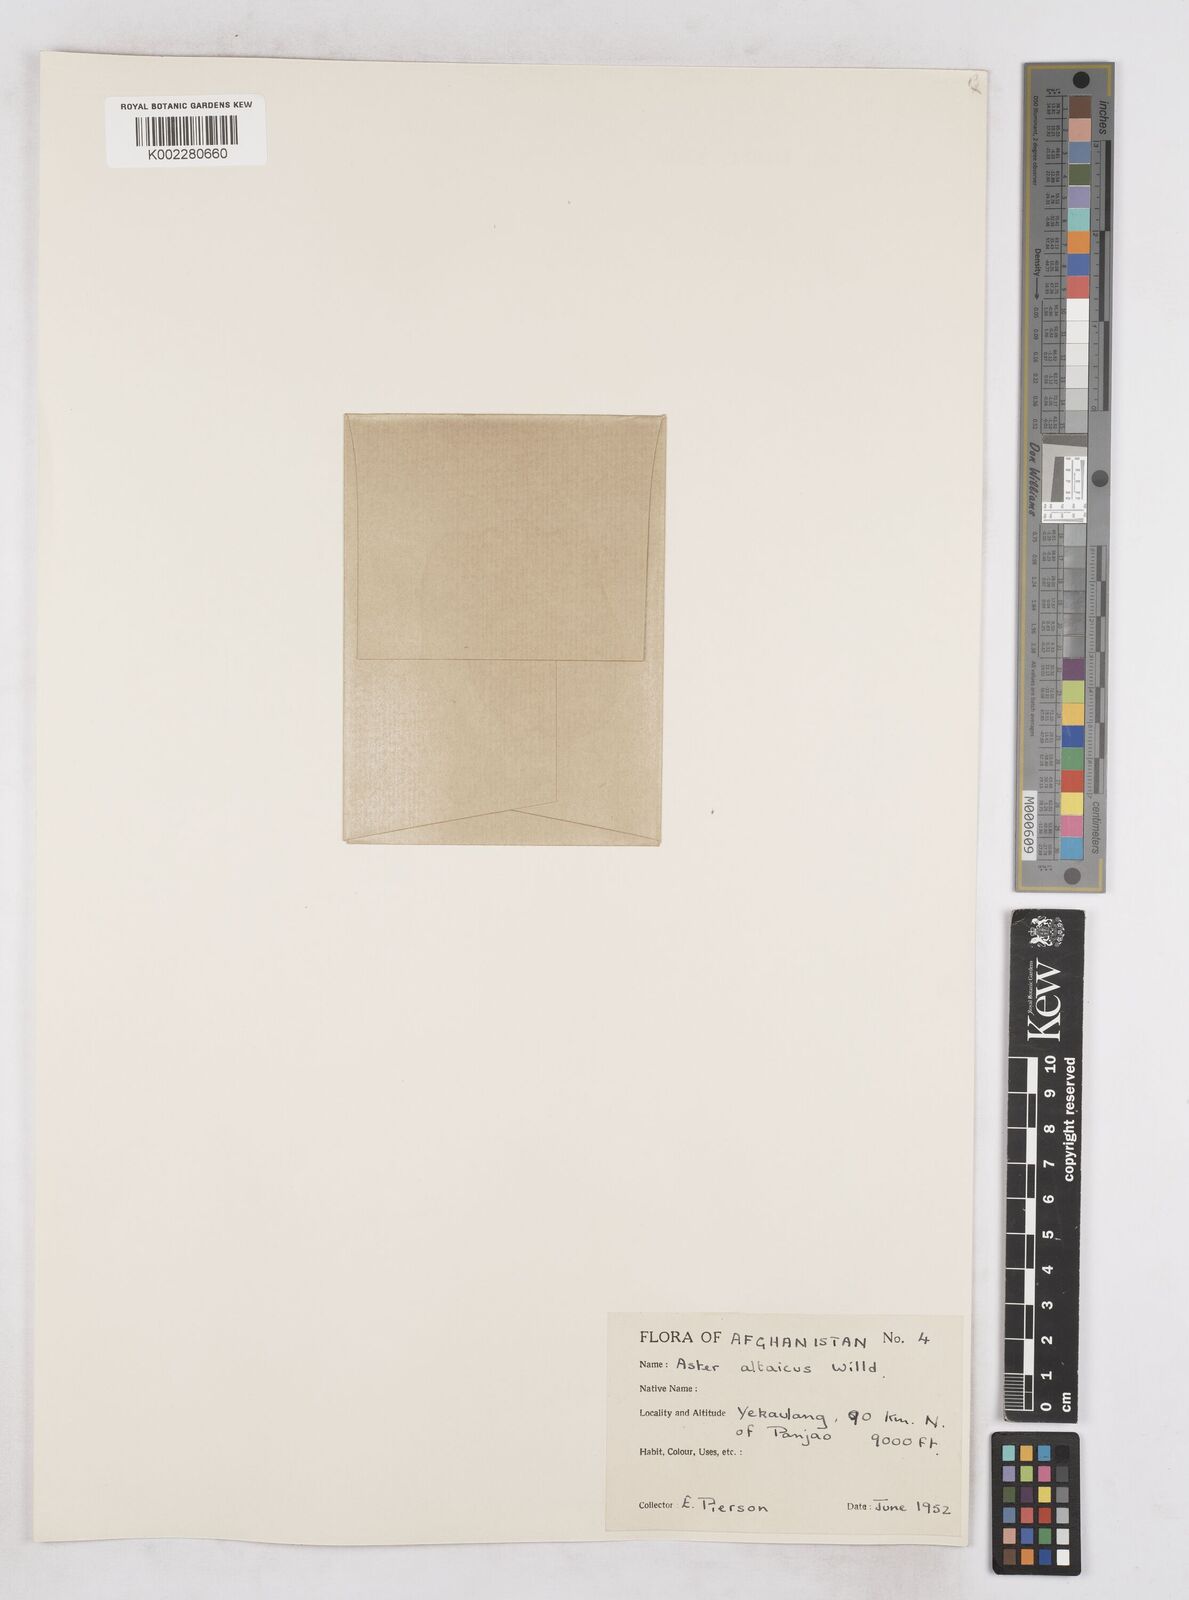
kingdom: Plantae
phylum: Tracheophyta
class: Magnoliopsida
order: Asterales
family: Asteraceae
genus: Heteropappus
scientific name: Heteropappus altaicus
